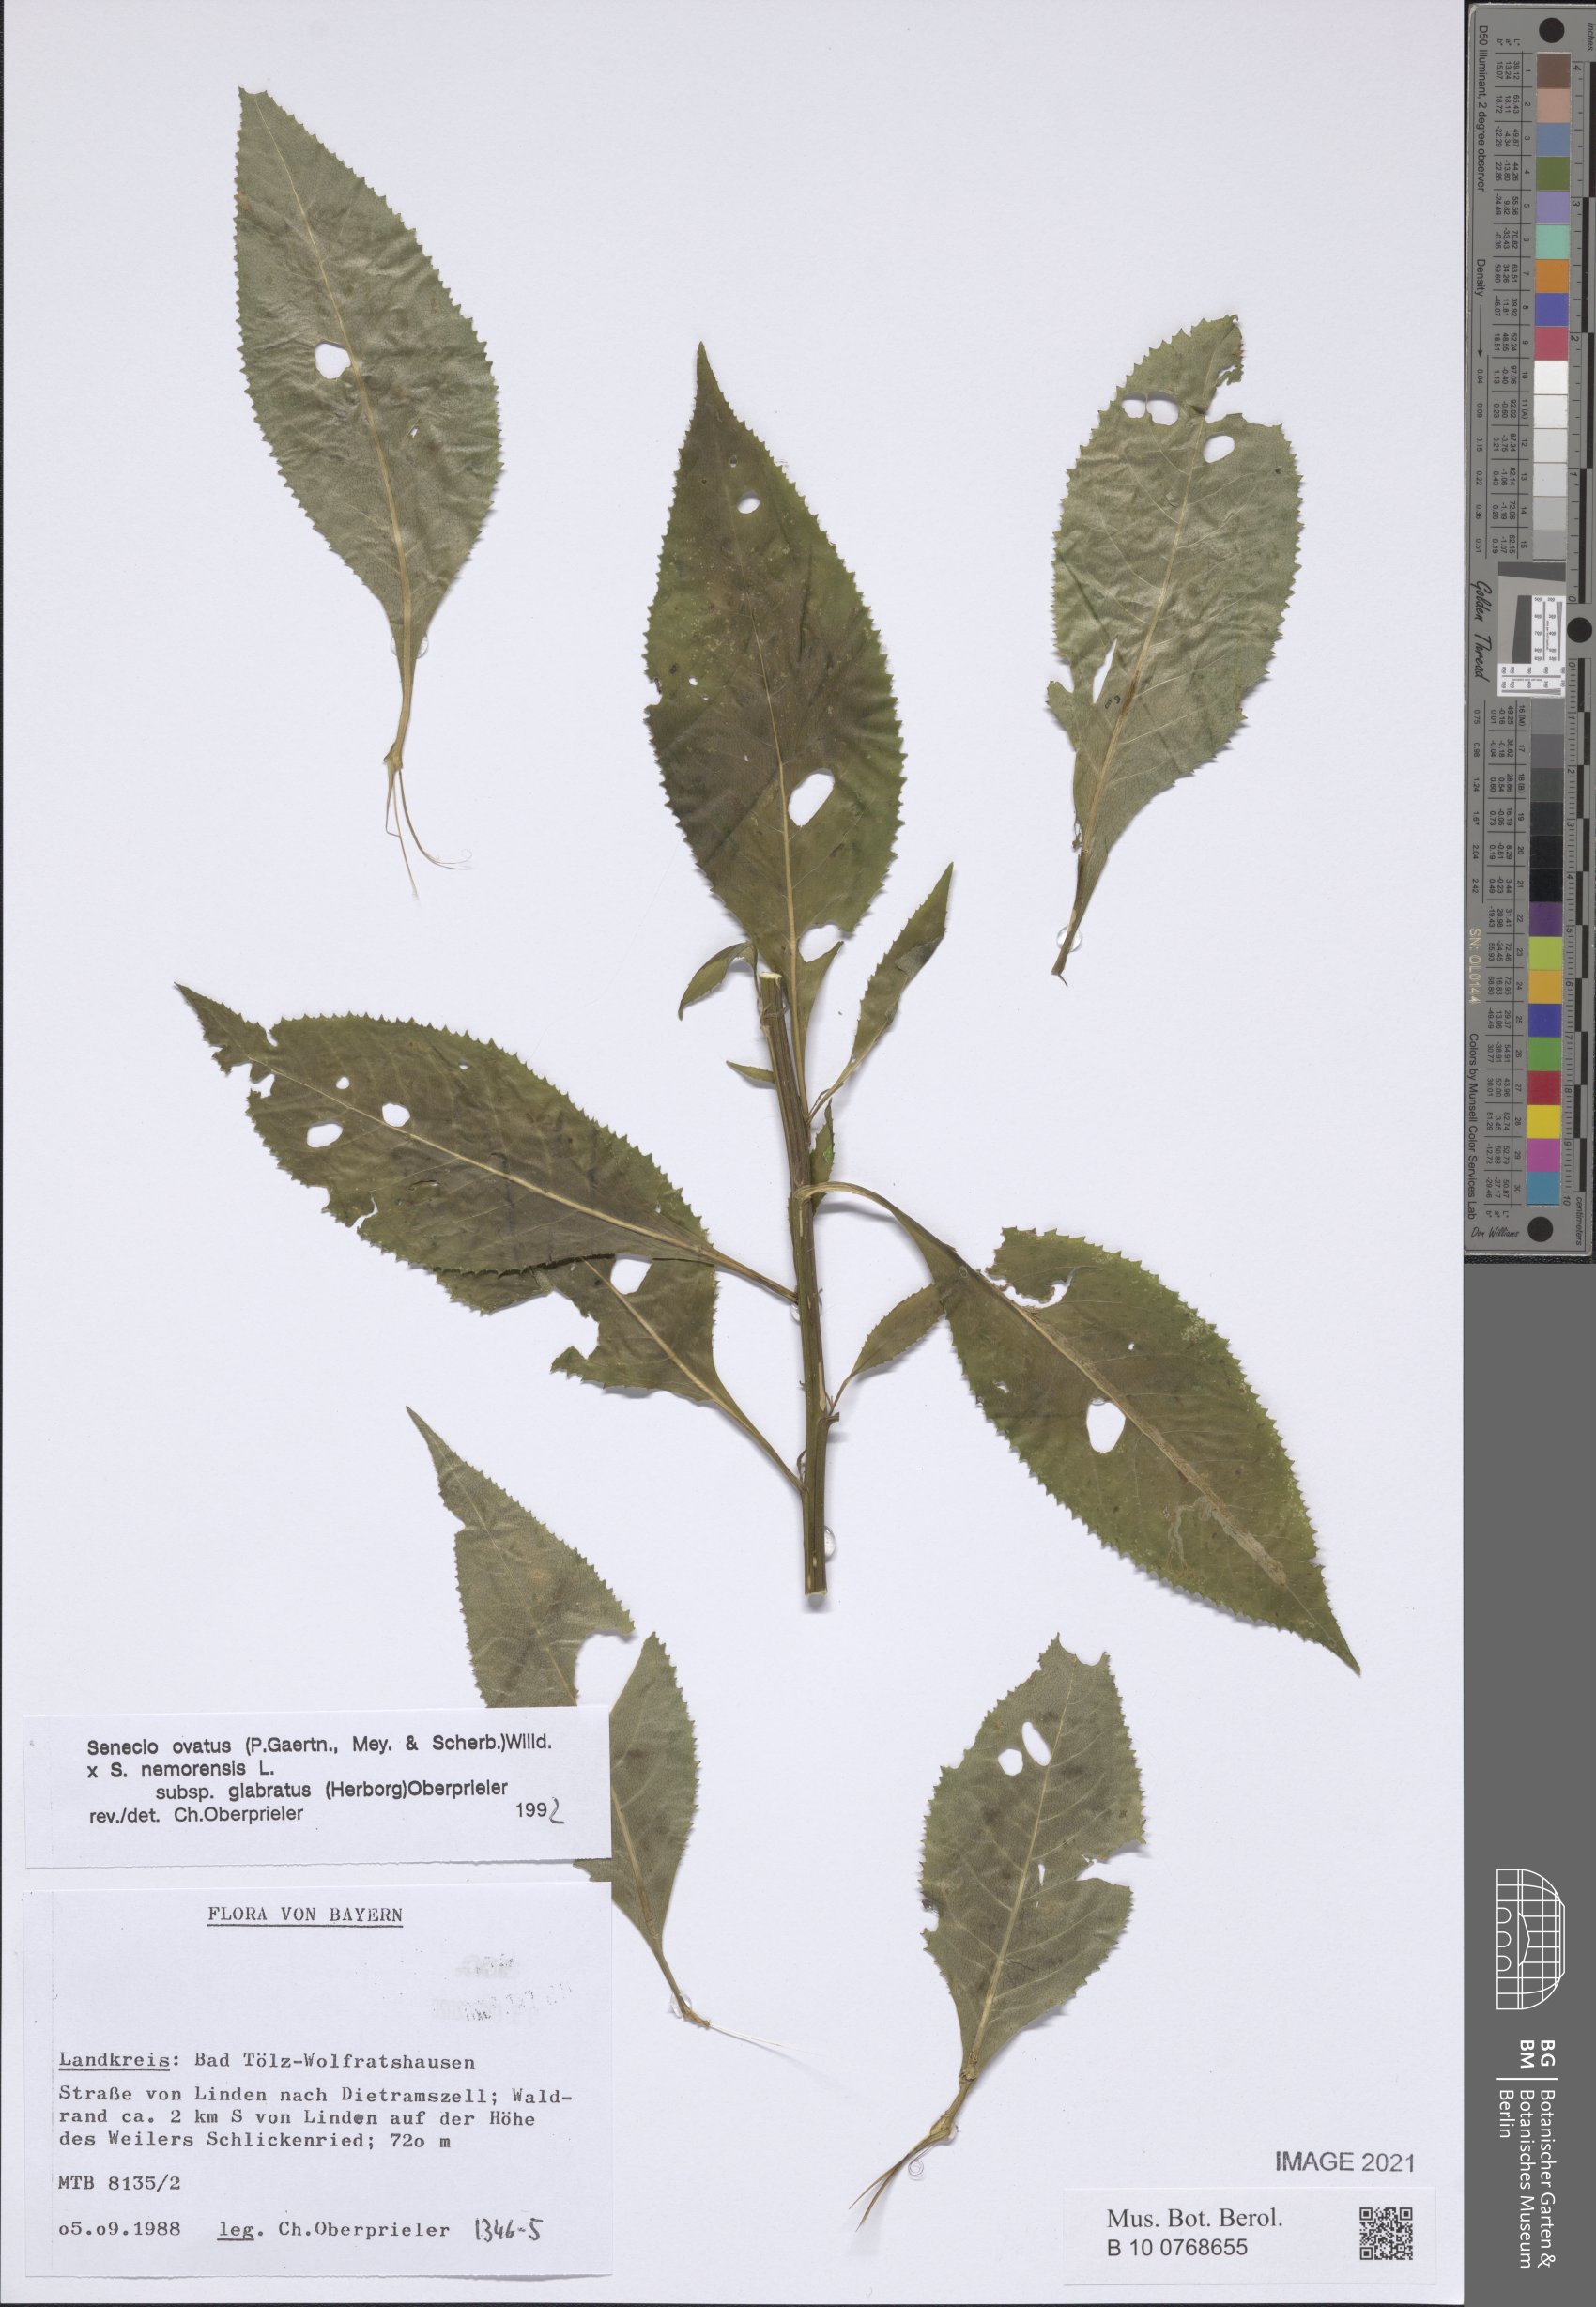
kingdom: Plantae
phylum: Tracheophyta
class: Magnoliopsida
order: Asterales
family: Asteraceae
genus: Senecio
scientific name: Senecio ovatus
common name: Wood ragwort
